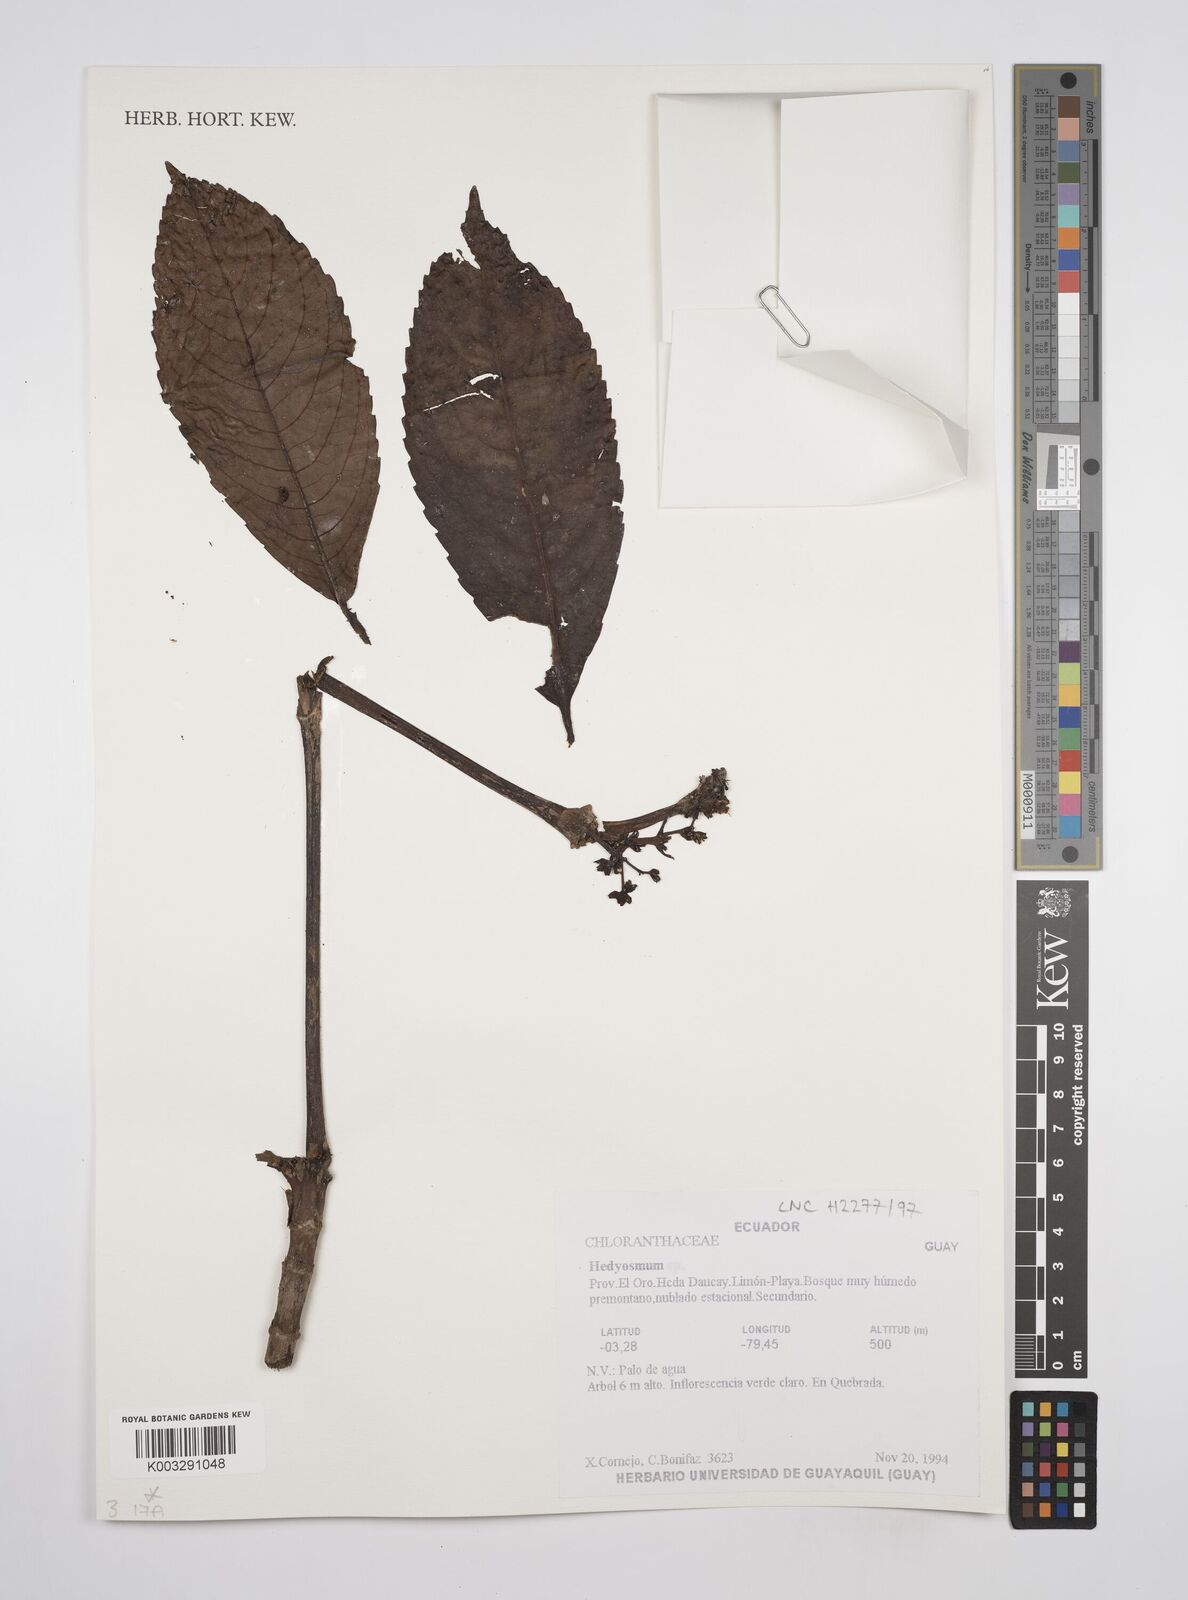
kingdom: Plantae
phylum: Tracheophyta
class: Magnoliopsida
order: Chloranthales
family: Chloranthaceae
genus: Hedyosmum
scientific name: Hedyosmum
